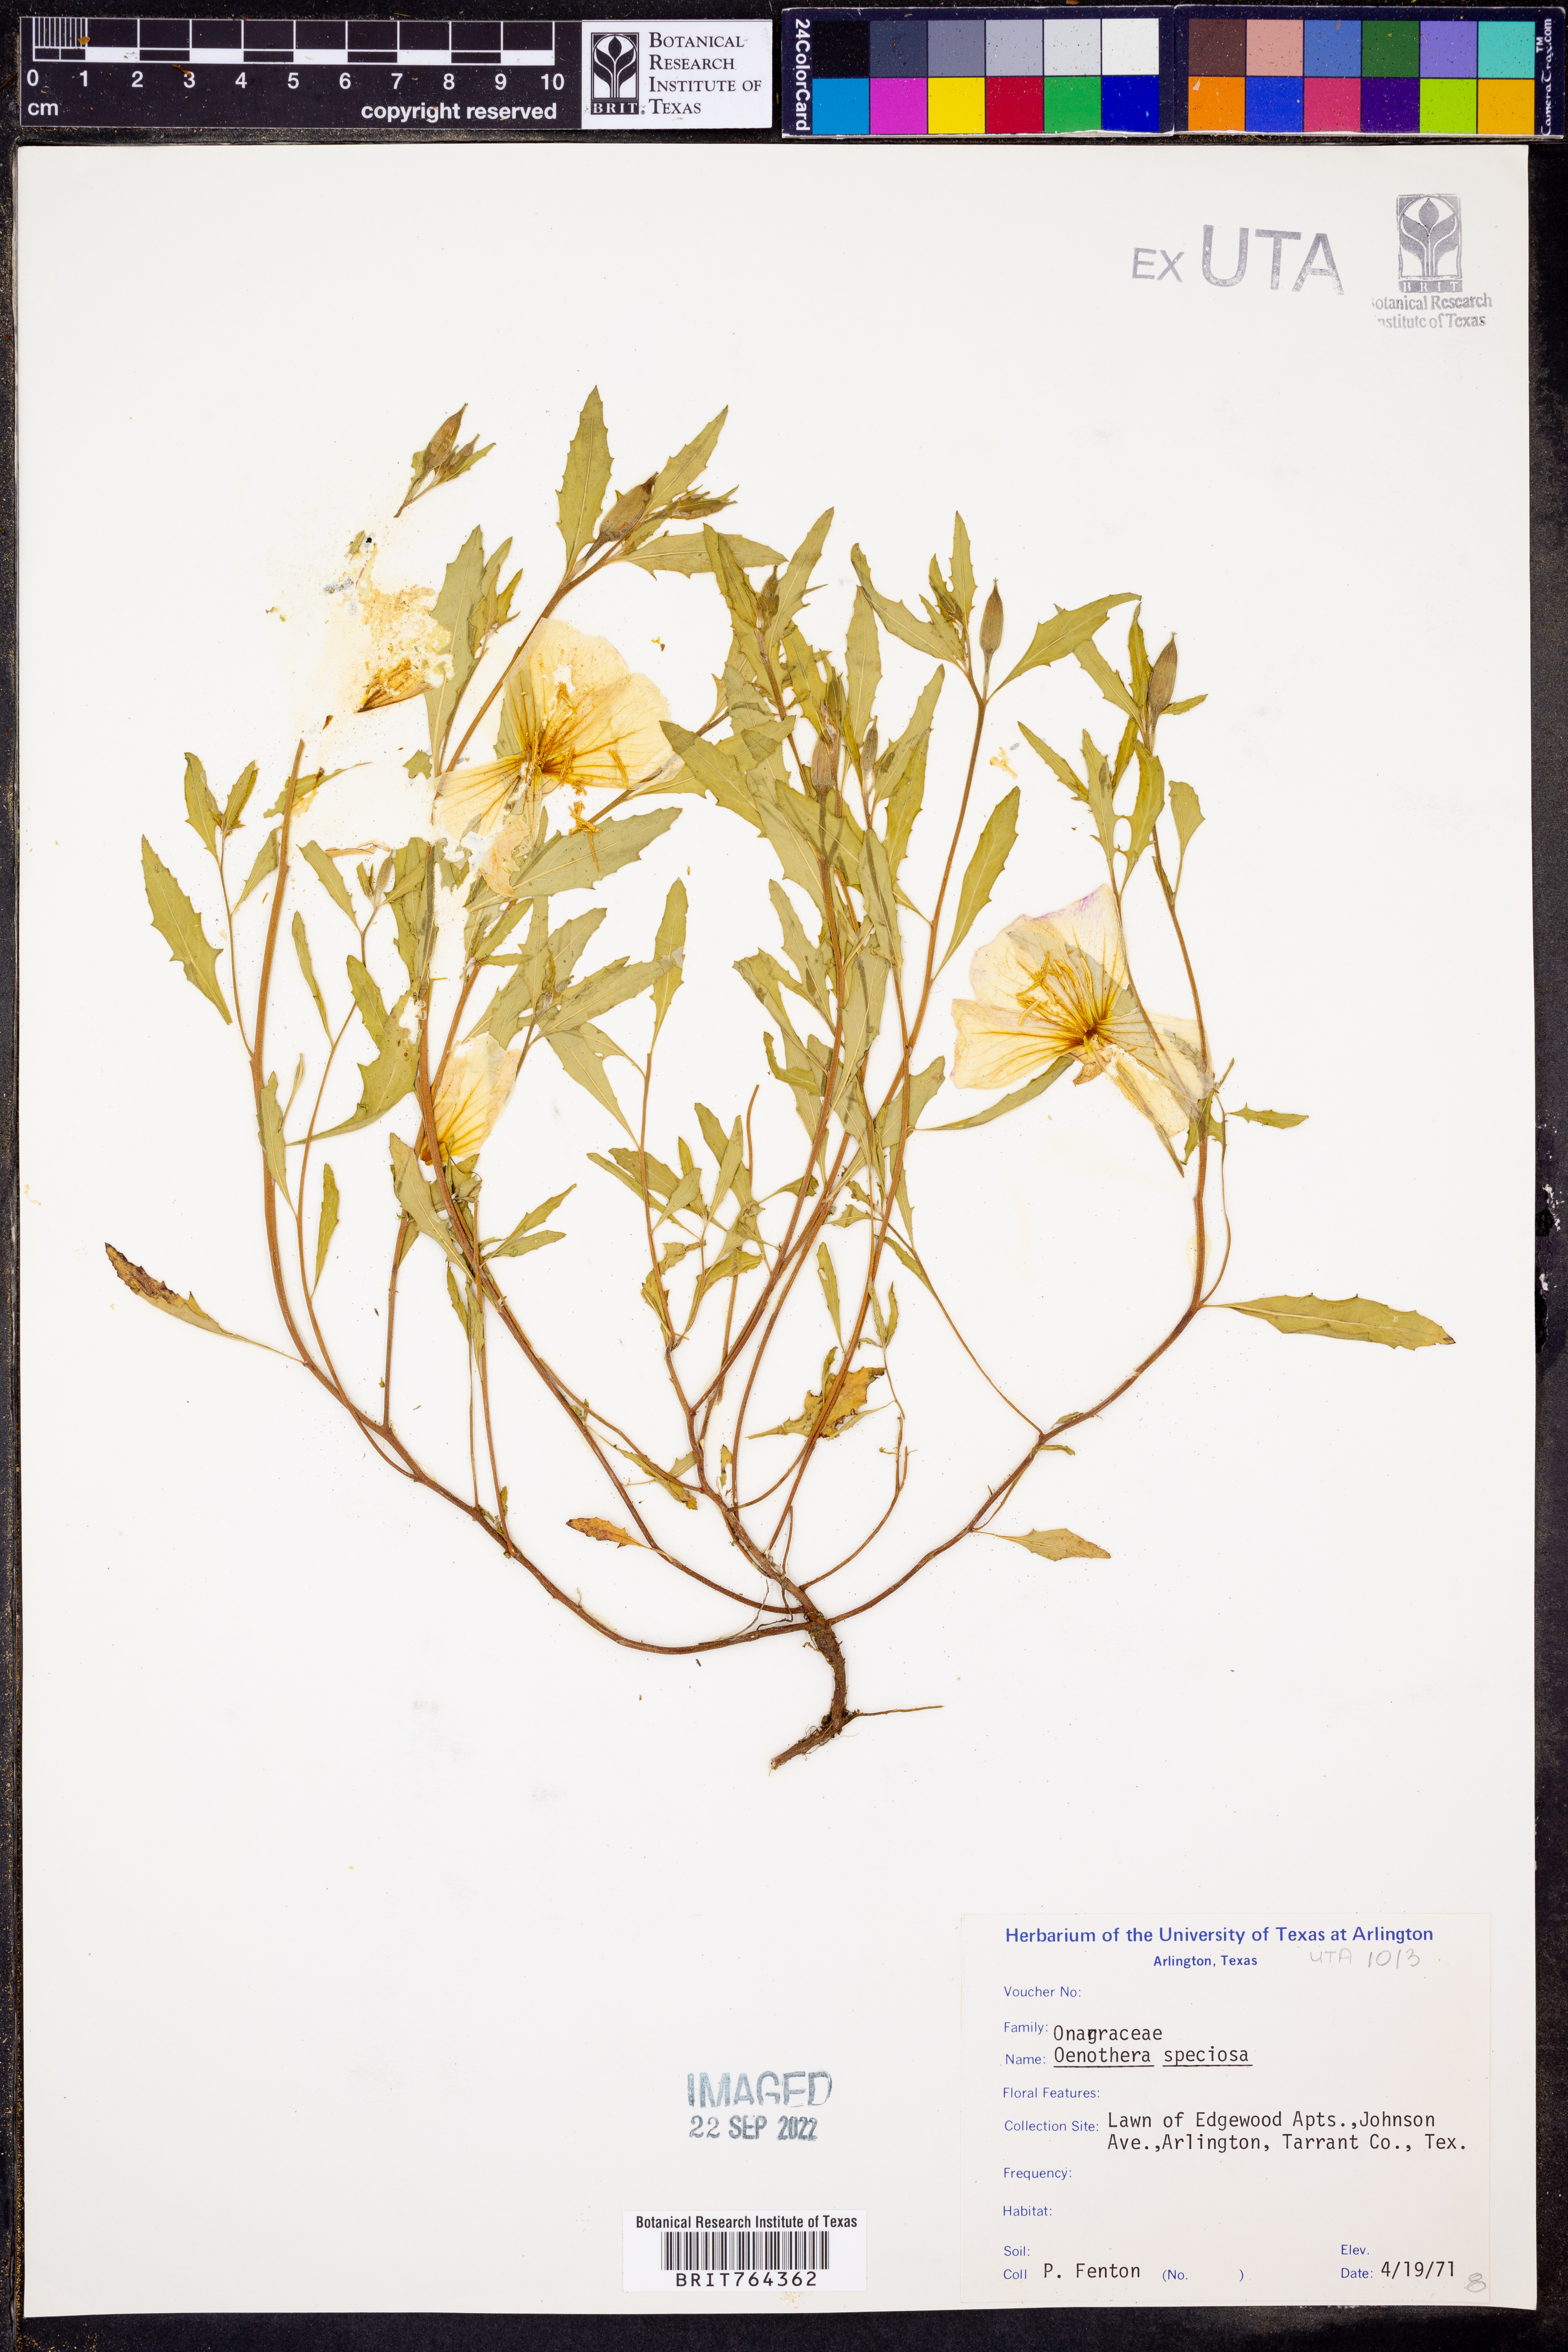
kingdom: Plantae
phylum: Tracheophyta
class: Magnoliopsida
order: Myrtales
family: Onagraceae
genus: Oenothera
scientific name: Oenothera speciosa
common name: White evening-primrose
